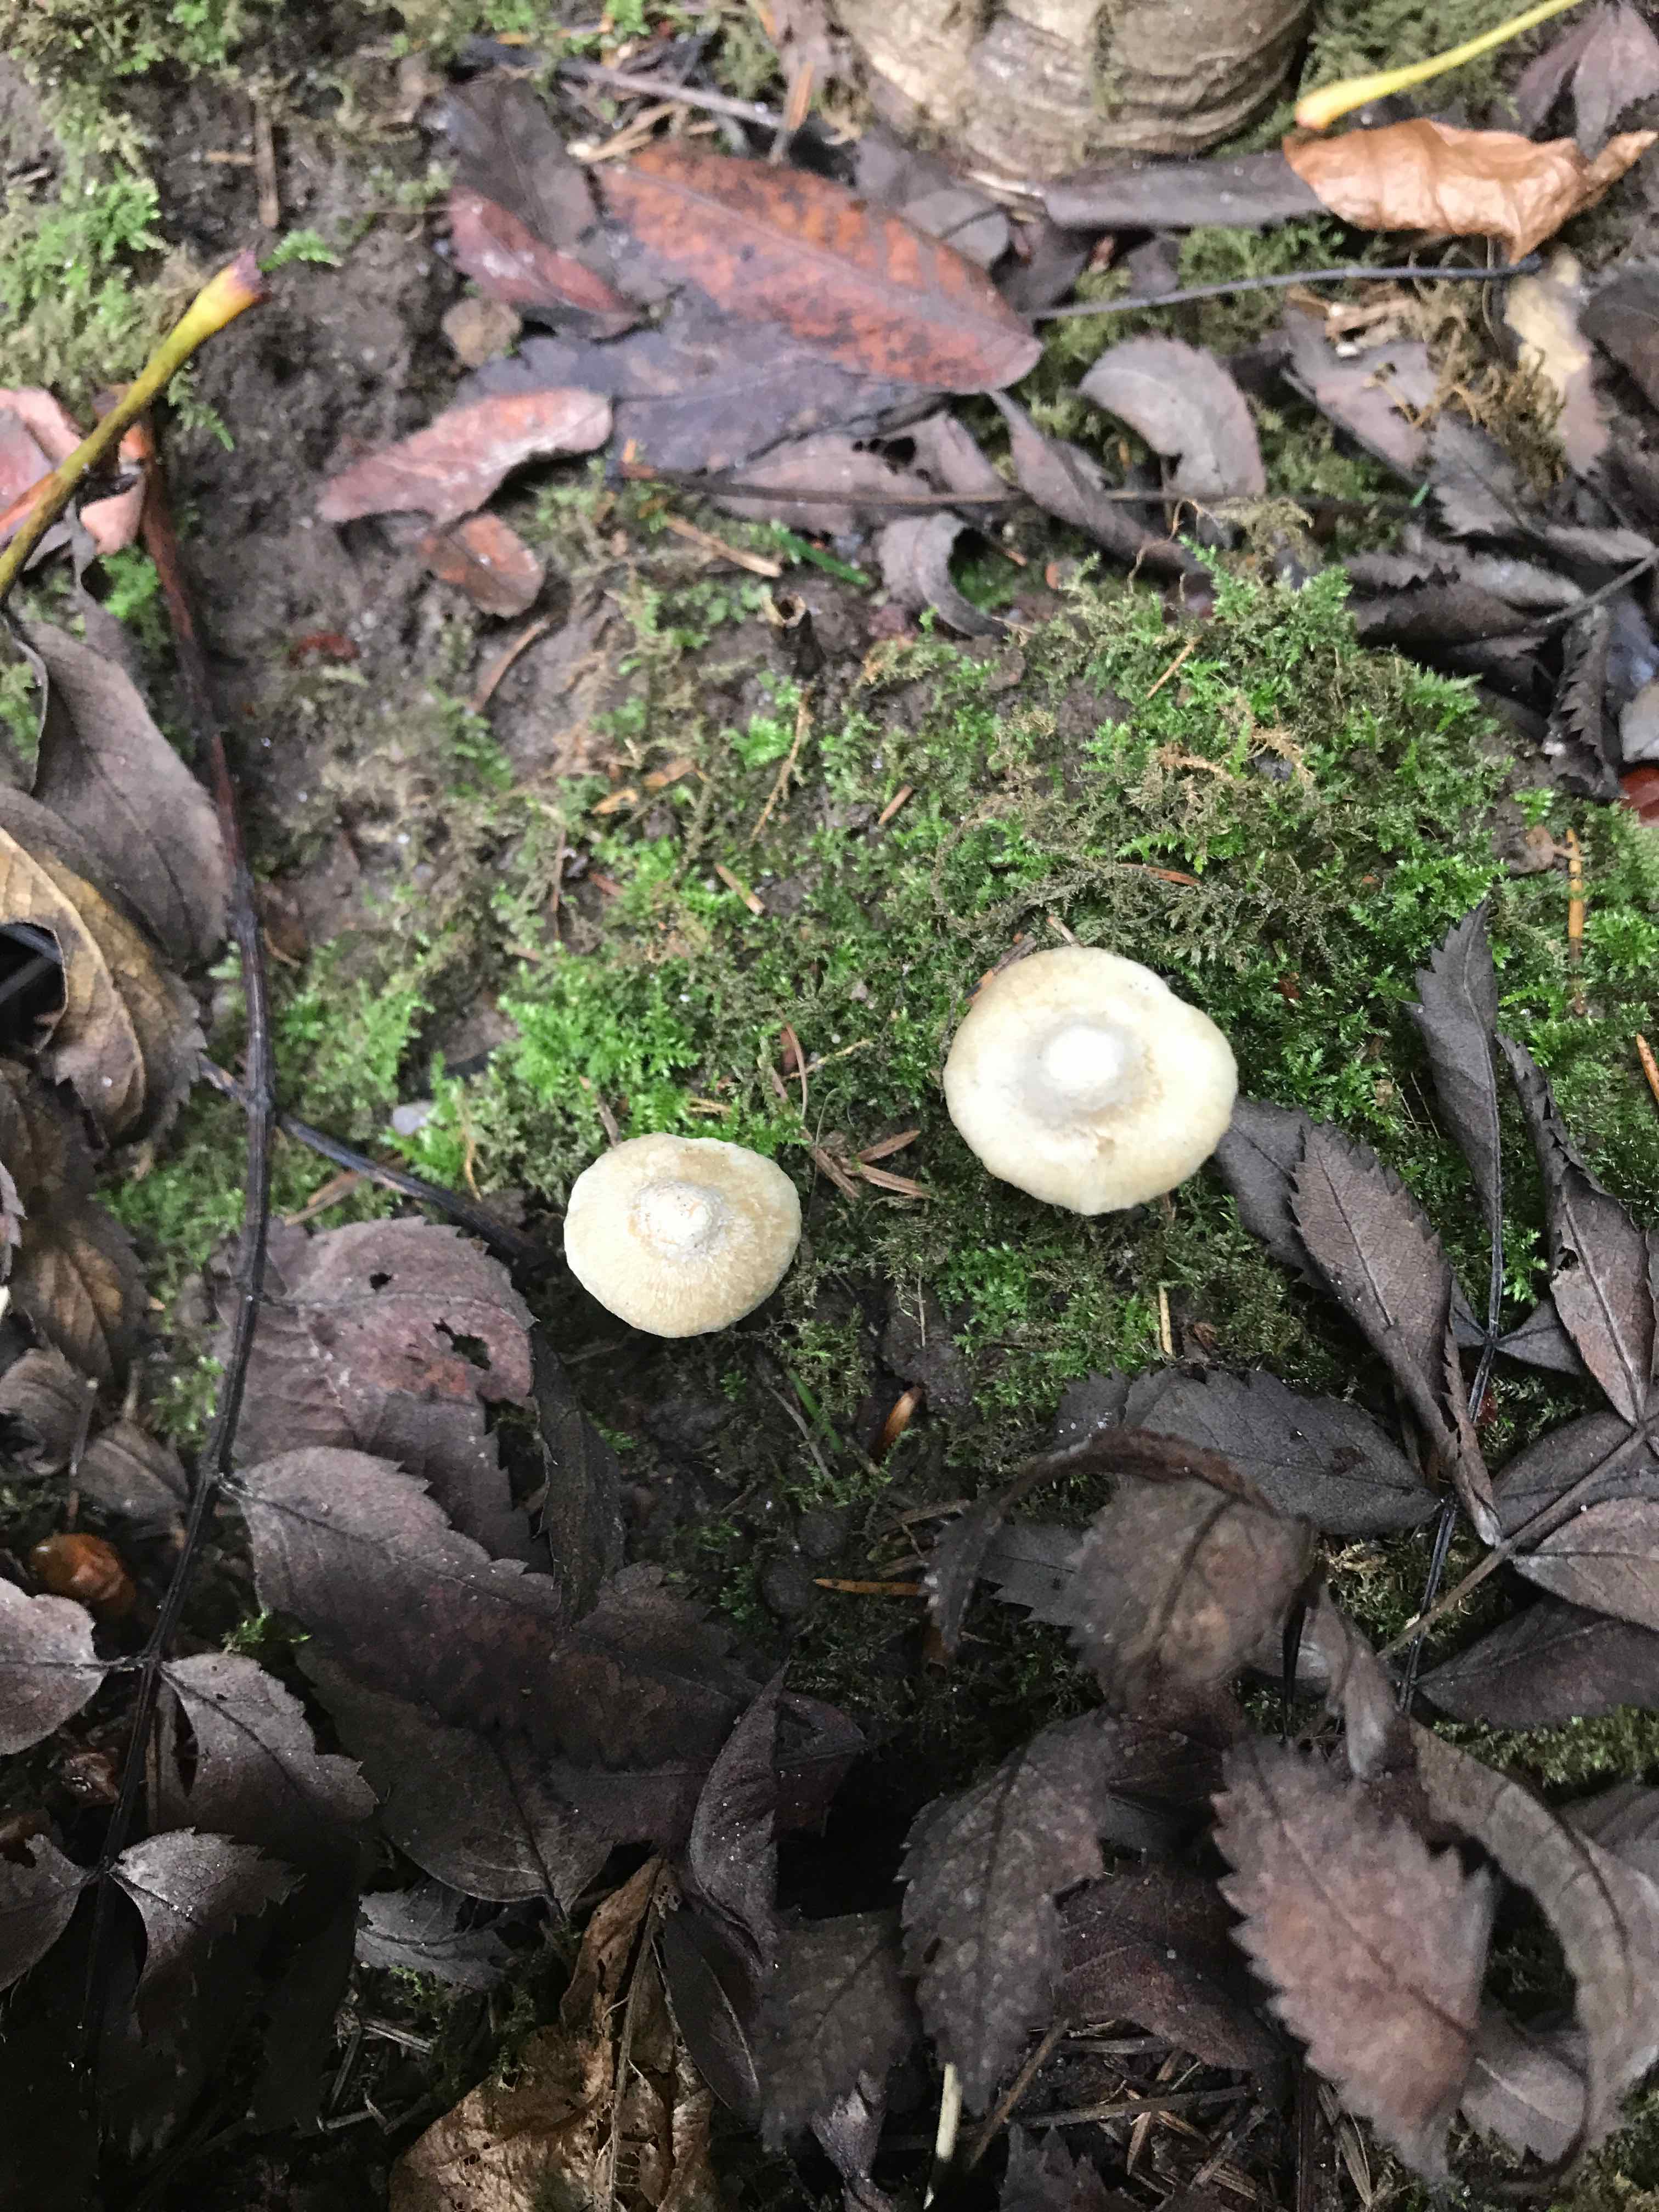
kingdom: Fungi
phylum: Basidiomycota
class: Agaricomycetes
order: Agaricales
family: Inocybaceae
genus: Inocybe
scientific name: Inocybe
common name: trævlhat
